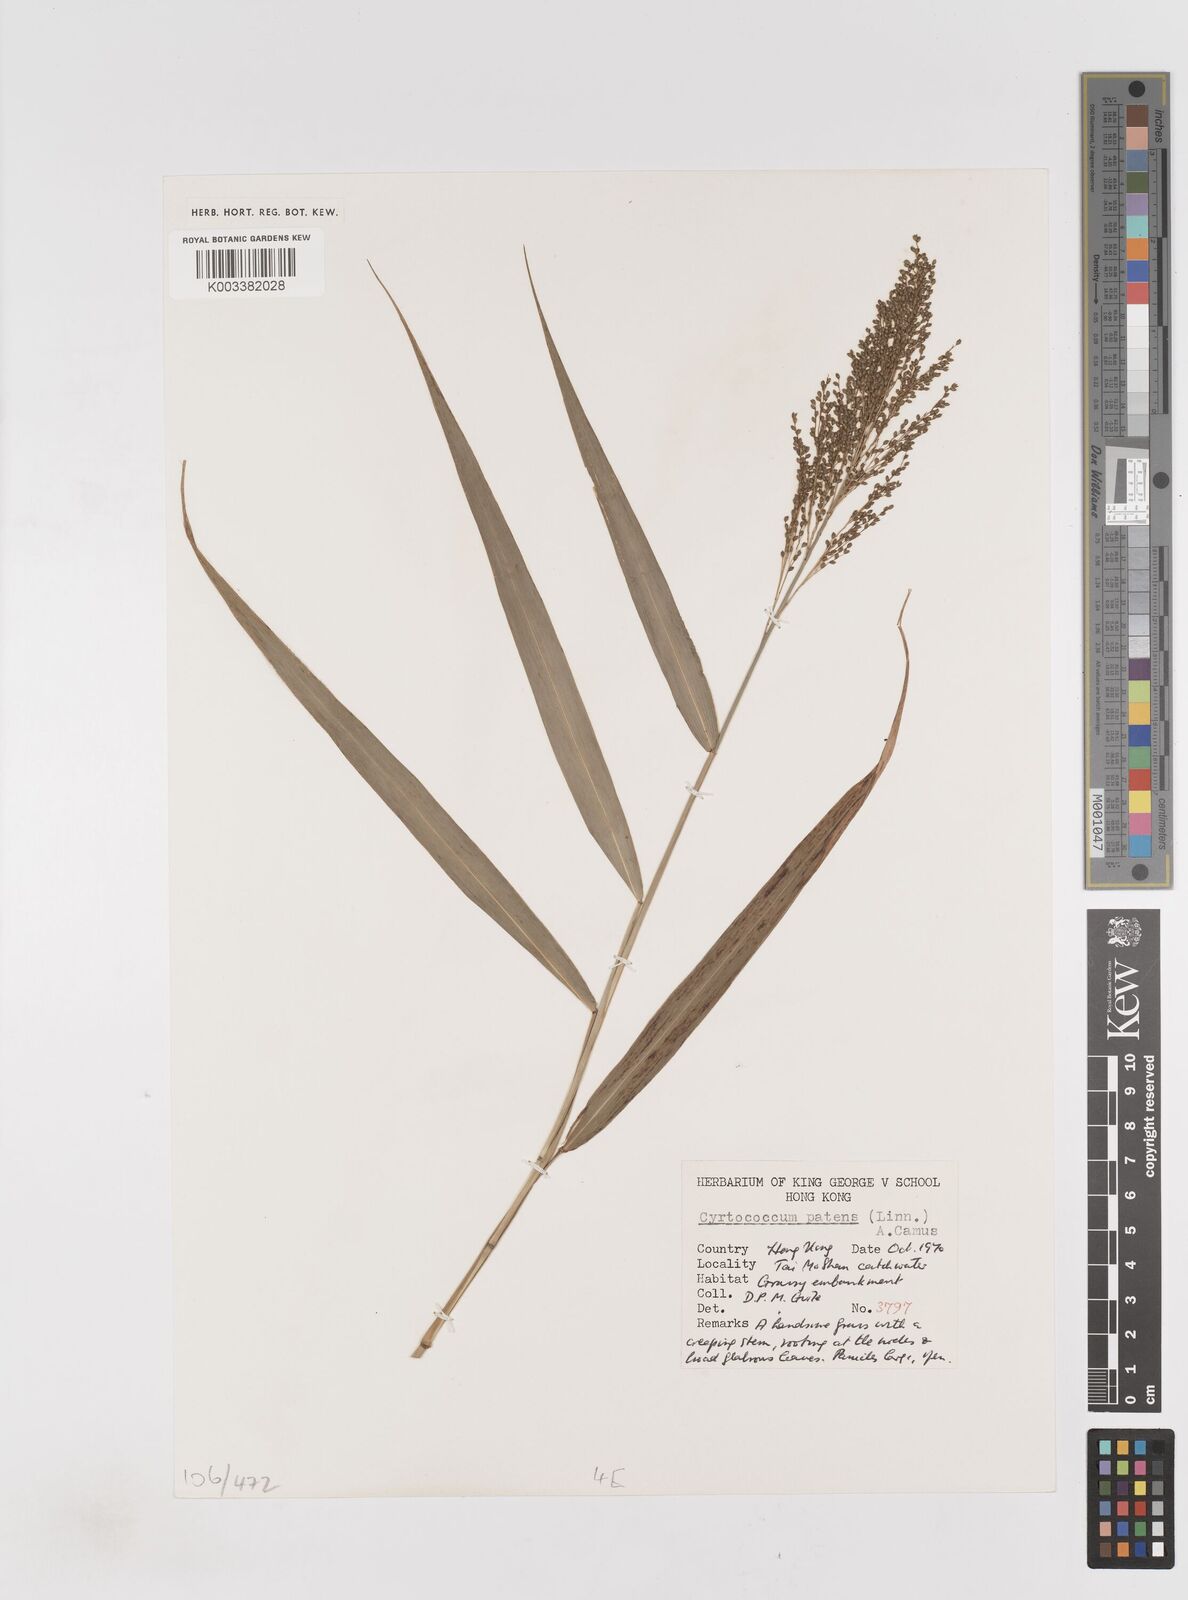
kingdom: Plantae
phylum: Tracheophyta
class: Liliopsida
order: Poales
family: Poaceae
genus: Cyrtococcum
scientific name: Cyrtococcum accrescens
